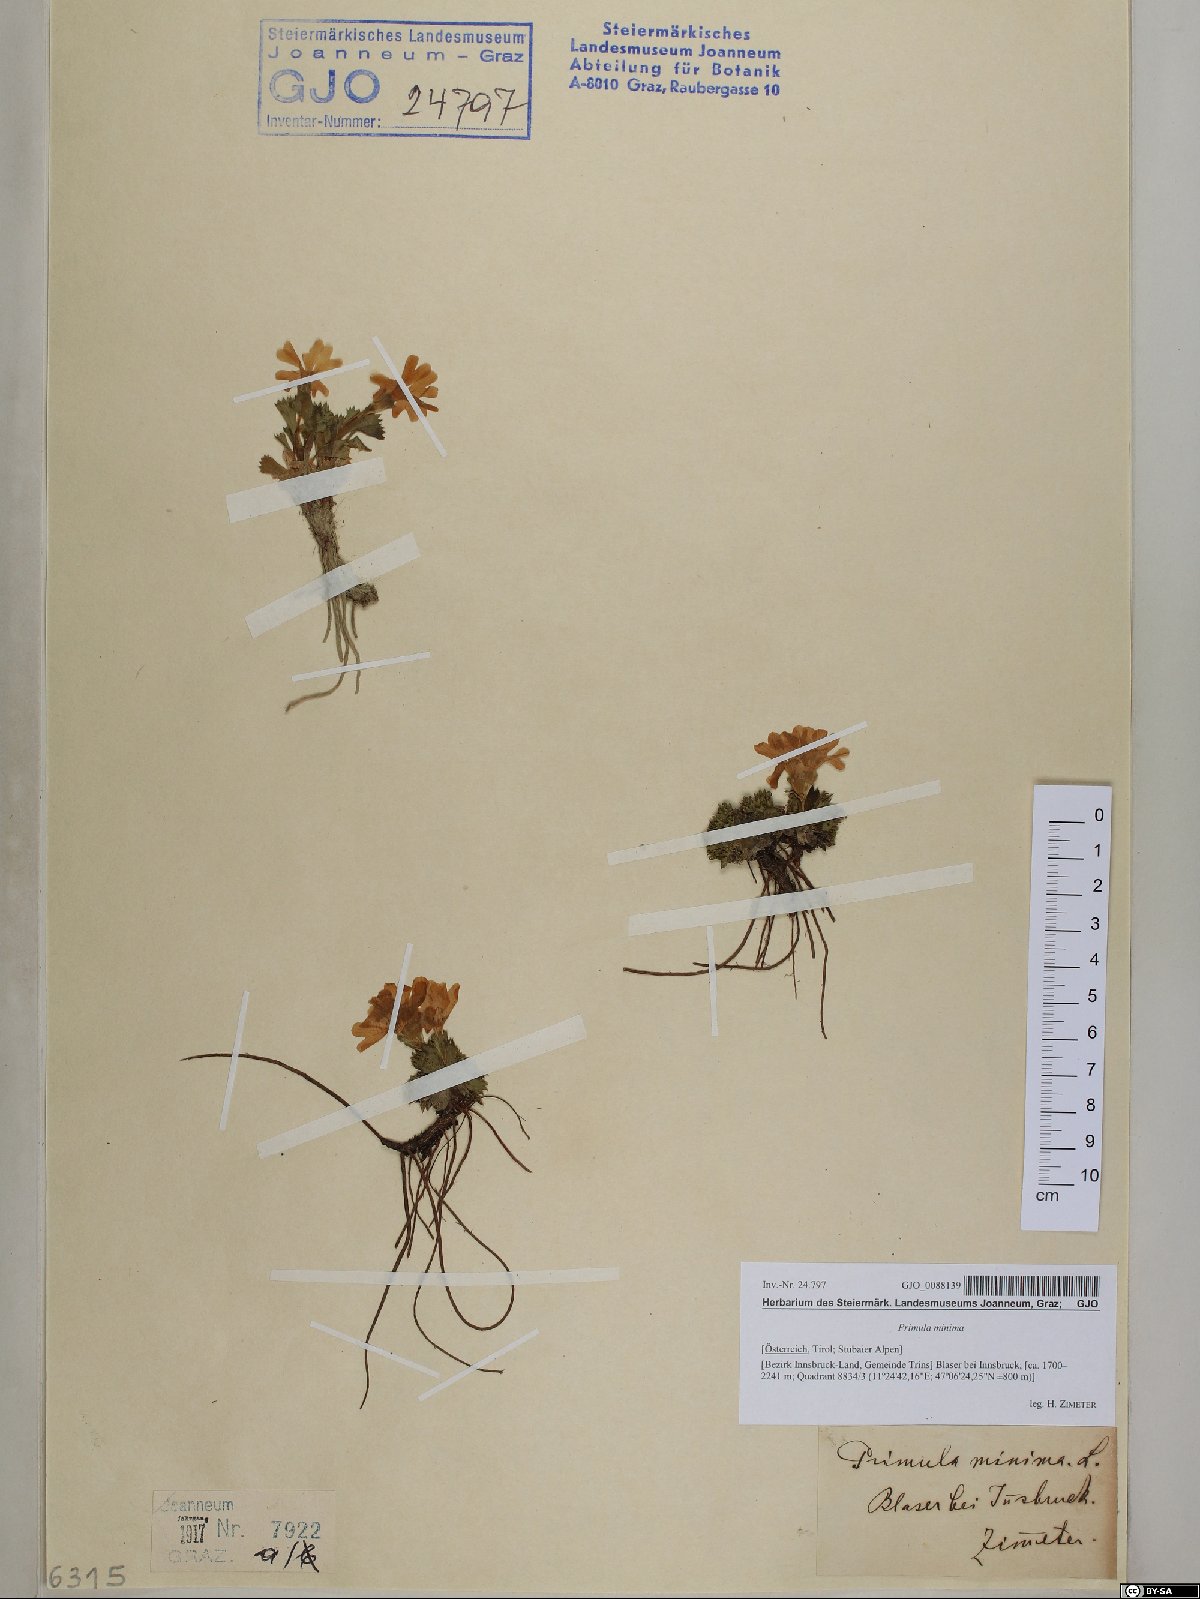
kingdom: Plantae
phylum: Tracheophyta
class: Magnoliopsida
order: Ericales
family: Primulaceae
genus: Primula
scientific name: Primula minima
